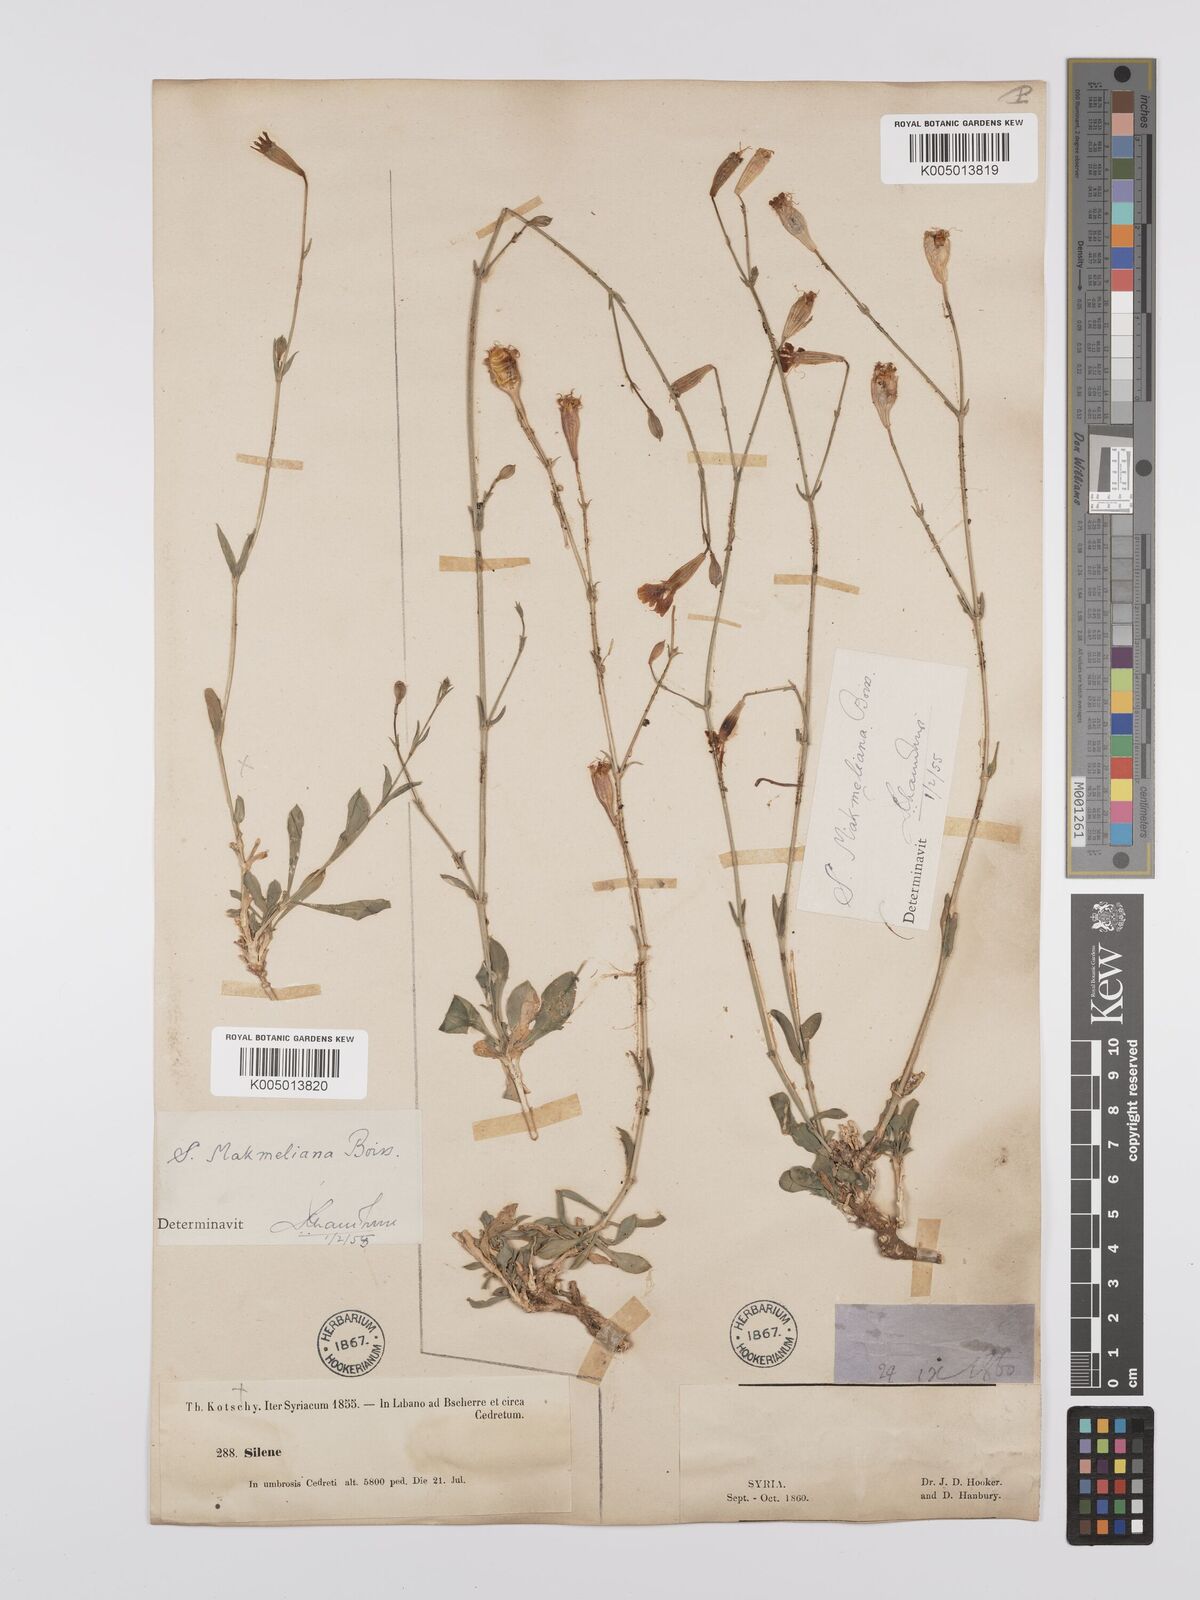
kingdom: Plantae
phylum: Tracheophyta
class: Magnoliopsida
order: Caryophyllales
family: Caryophyllaceae
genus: Silene
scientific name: Silene libanotica
